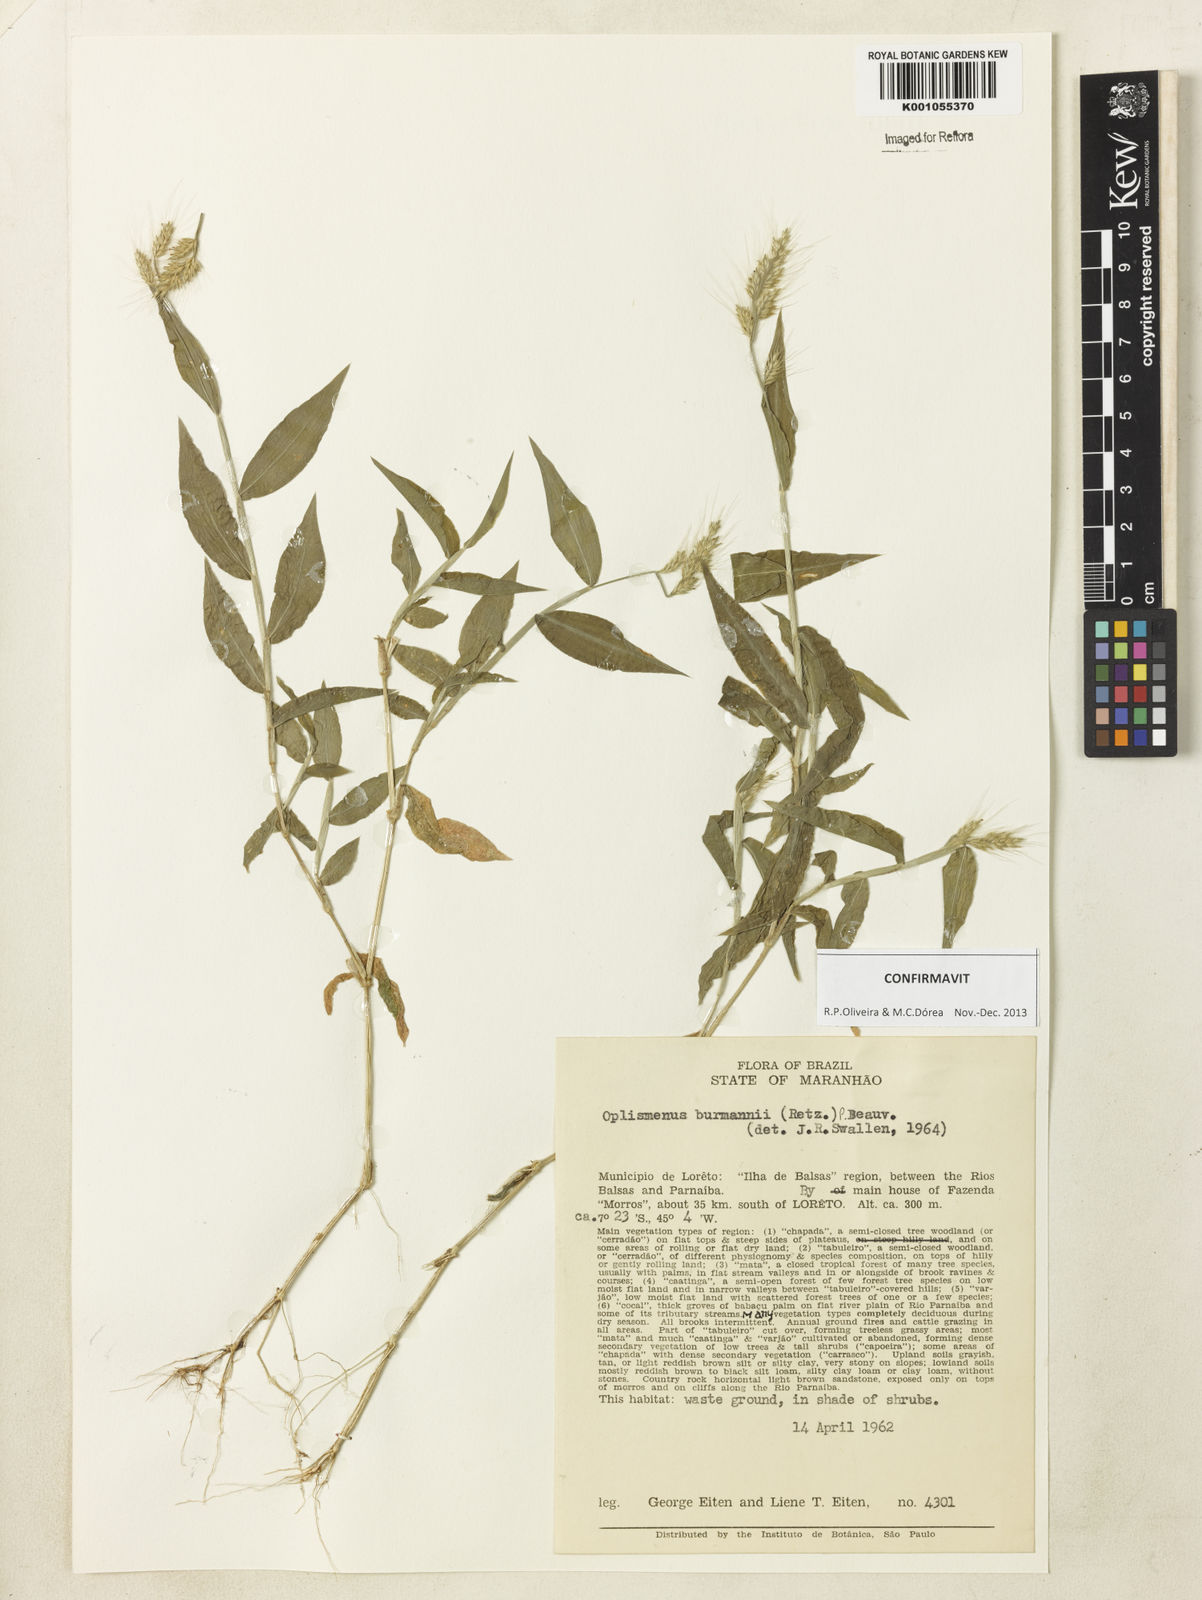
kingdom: Plantae
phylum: Tracheophyta
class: Liliopsida
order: Poales
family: Poaceae
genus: Oplismenus
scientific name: Oplismenus burmanni
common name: Burmann's basketgrass
